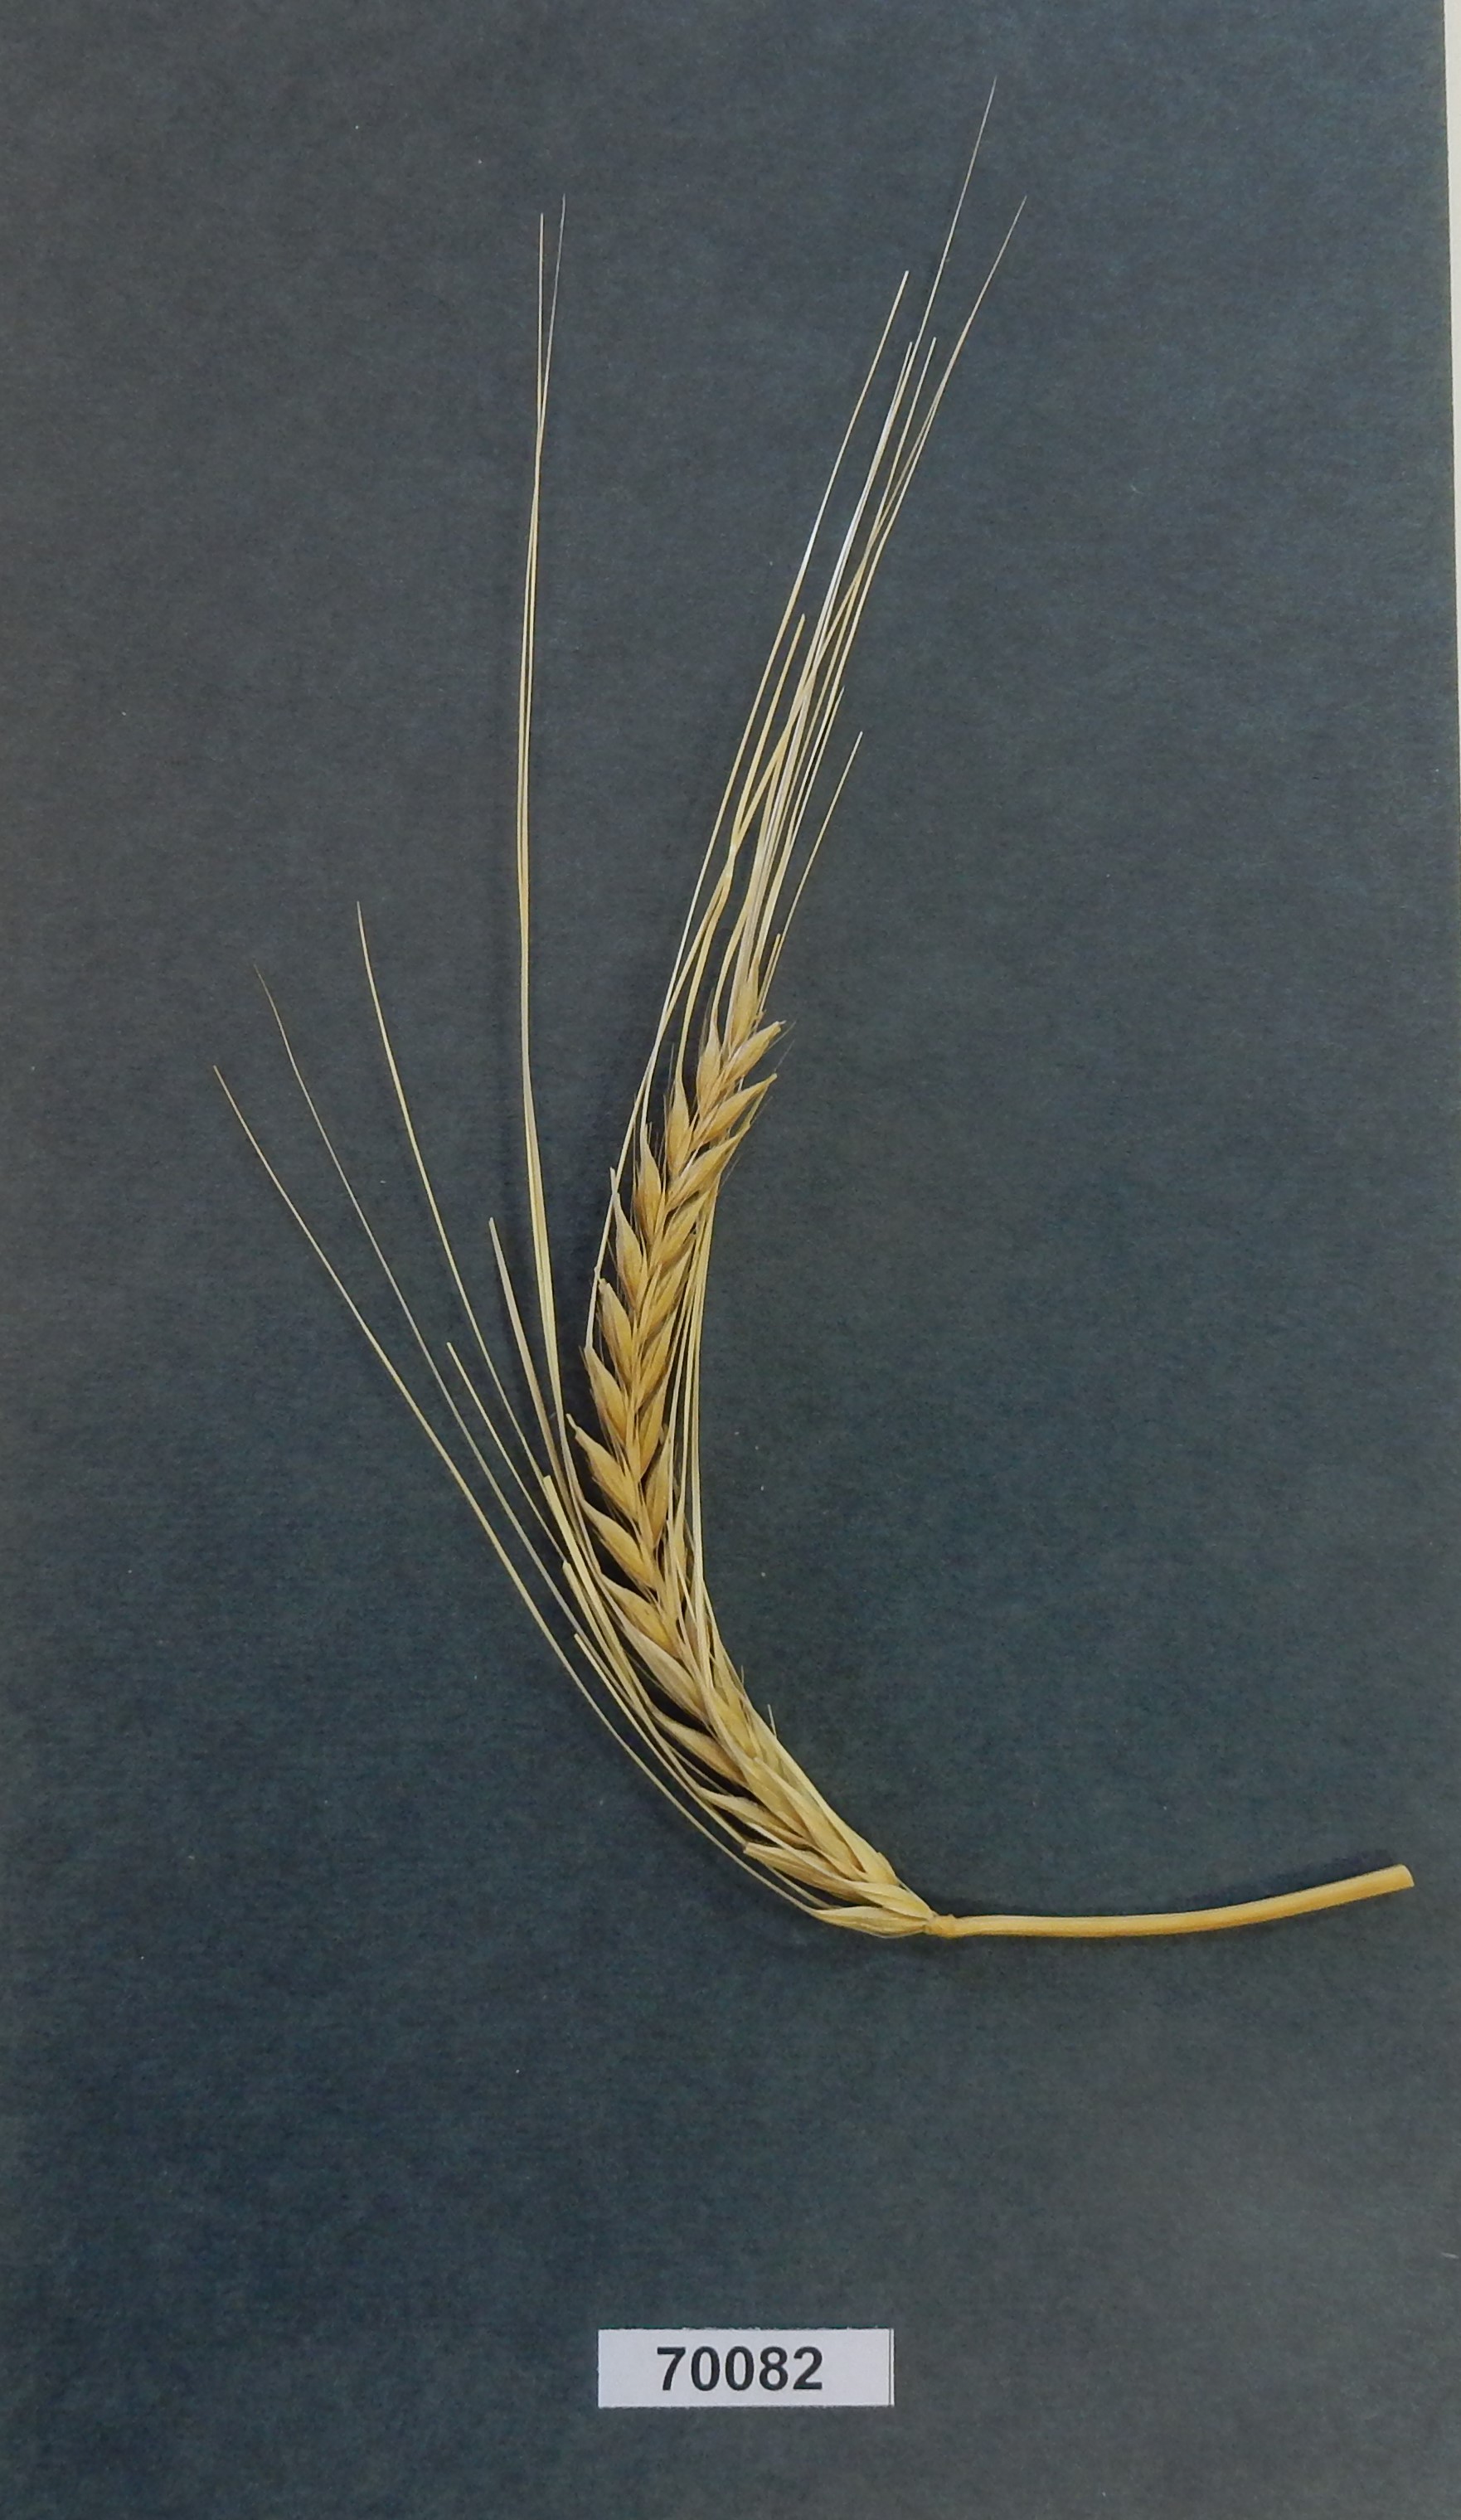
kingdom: Plantae
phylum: Tracheophyta
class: Liliopsida
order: Poales
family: Poaceae
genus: Hordeum
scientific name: Hordeum
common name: Barley
